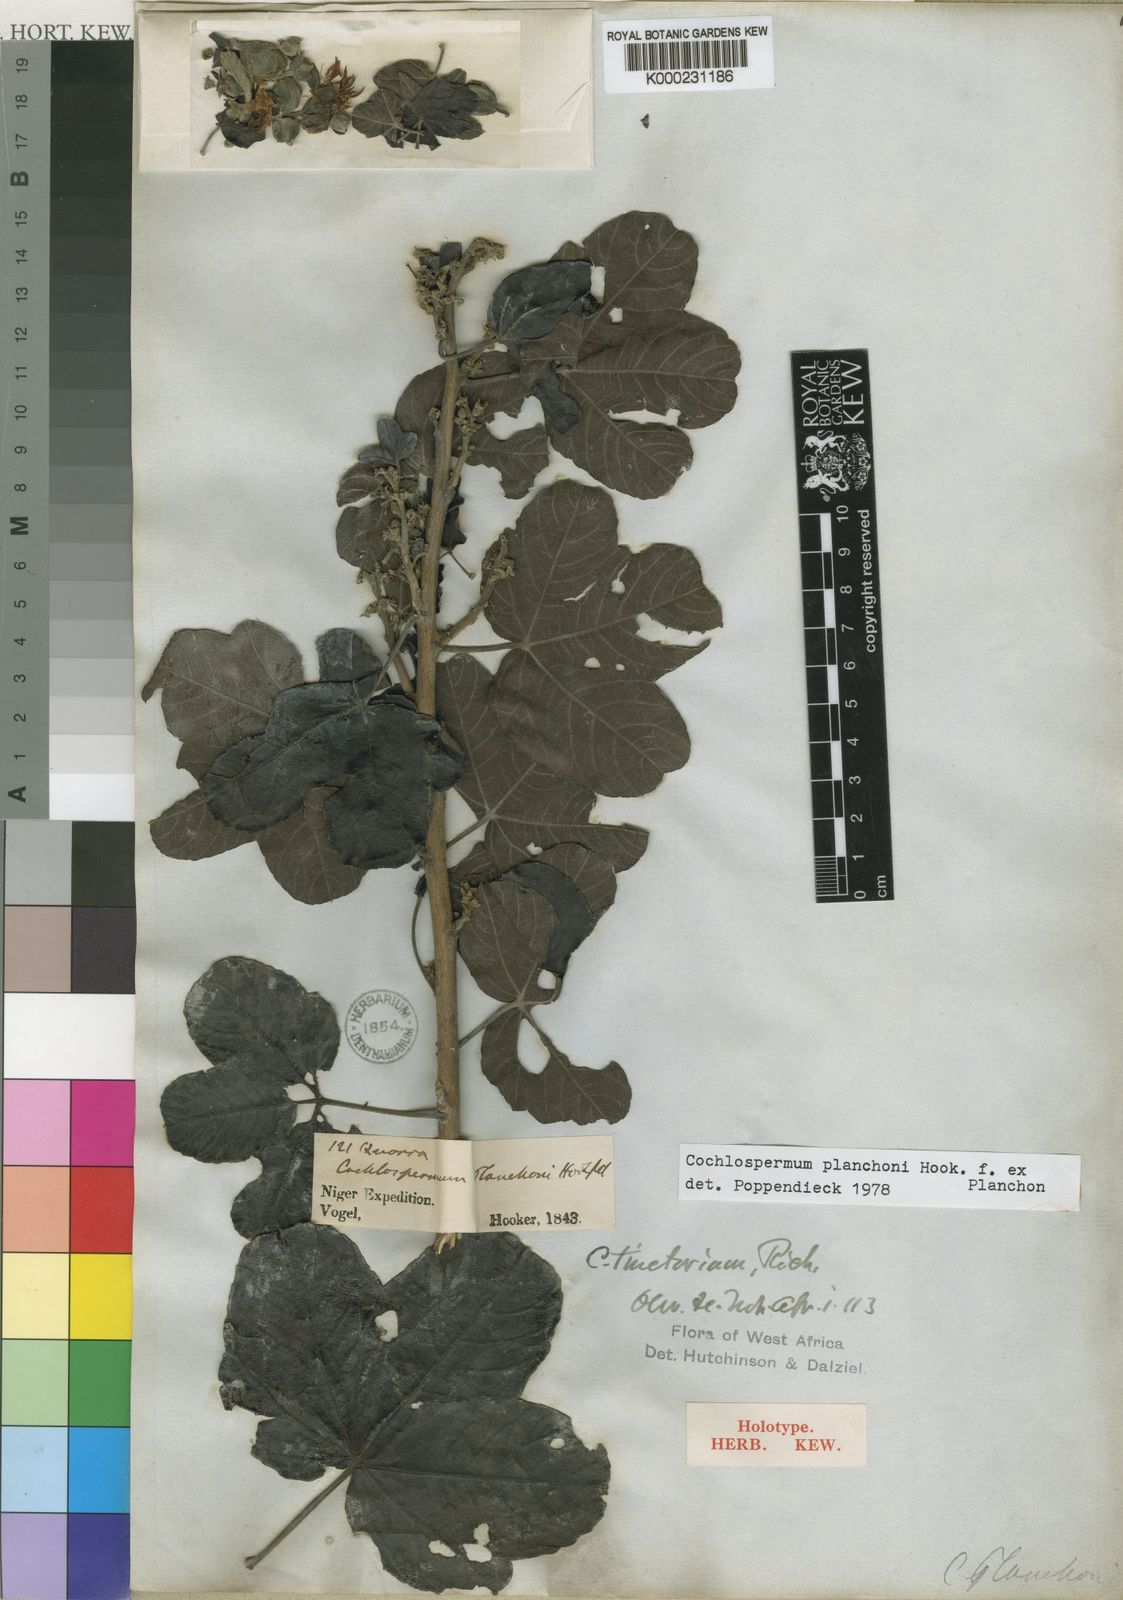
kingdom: Plantae
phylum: Tracheophyta
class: Magnoliopsida
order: Malvales
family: Cochlospermaceae
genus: Cochlospermum
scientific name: Cochlospermum planchonii
